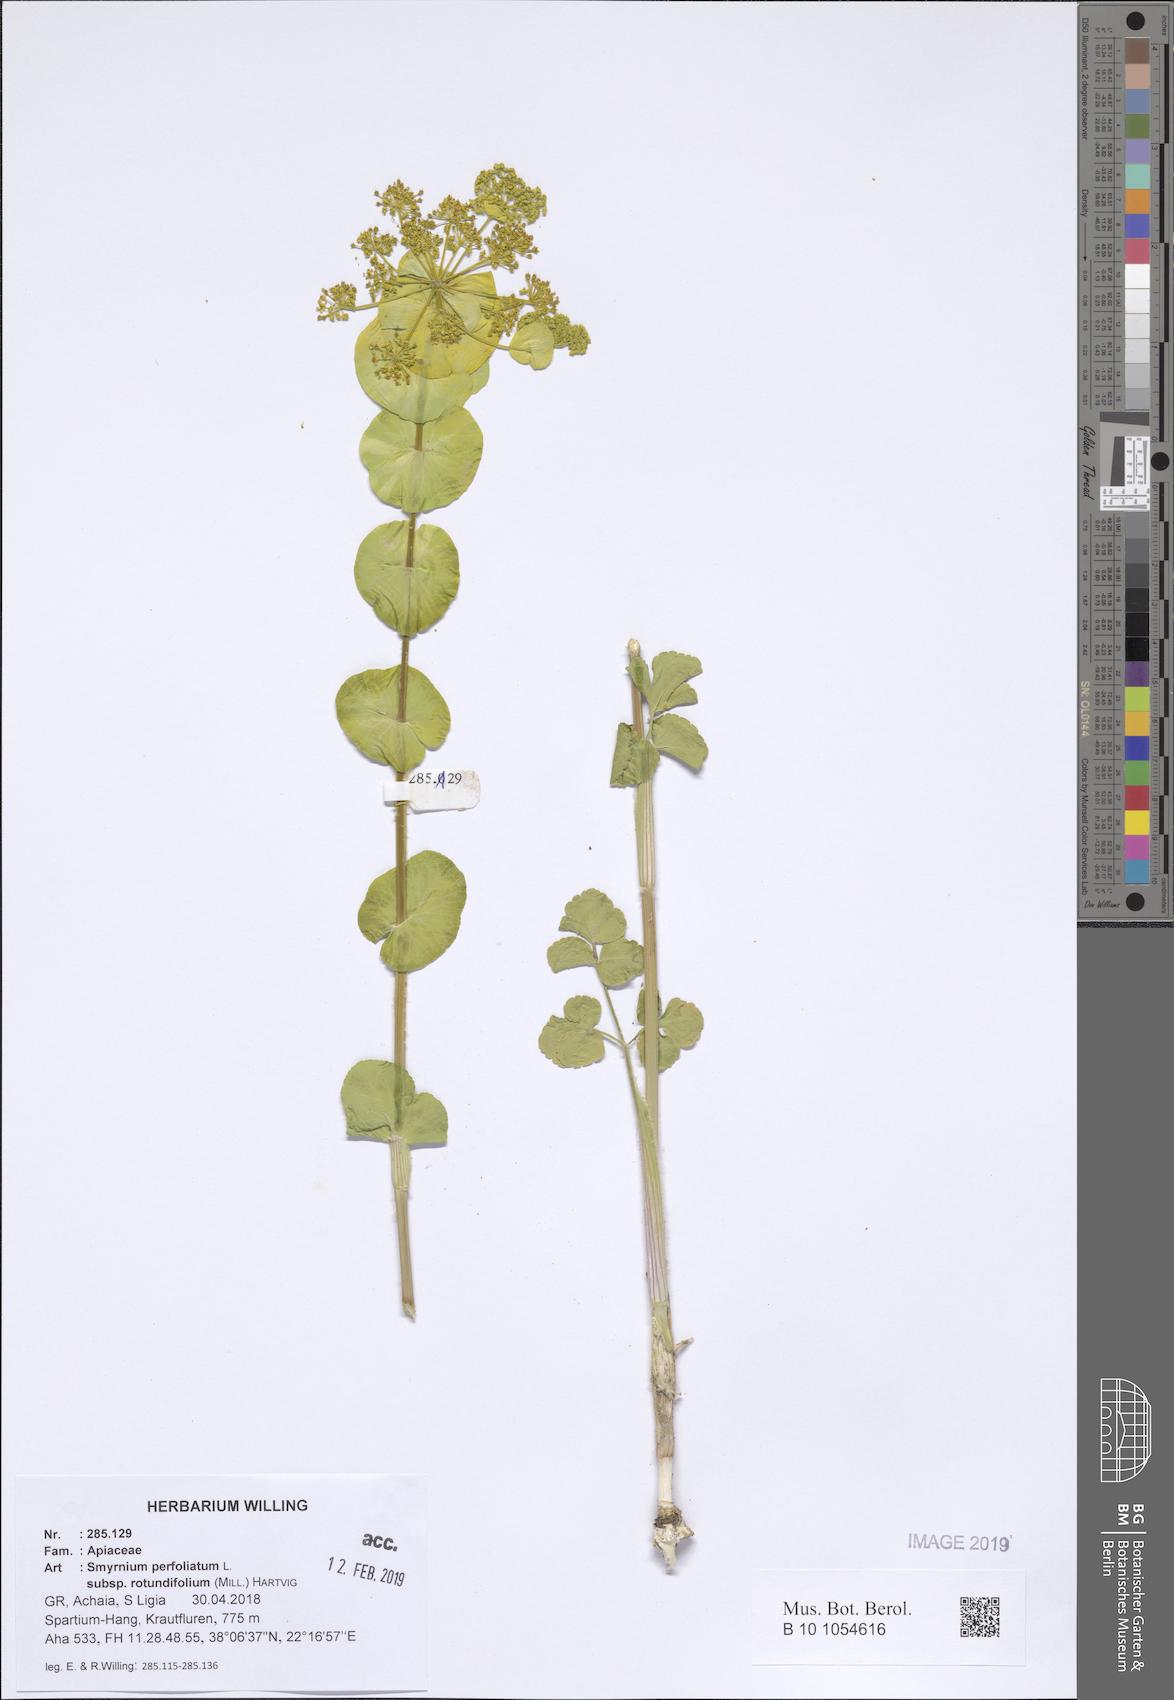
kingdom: Plantae
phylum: Tracheophyta
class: Magnoliopsida
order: Apiales
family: Apiaceae
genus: Smyrnium
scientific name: Smyrnium perfoliatum
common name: Perfoliate alexanders
